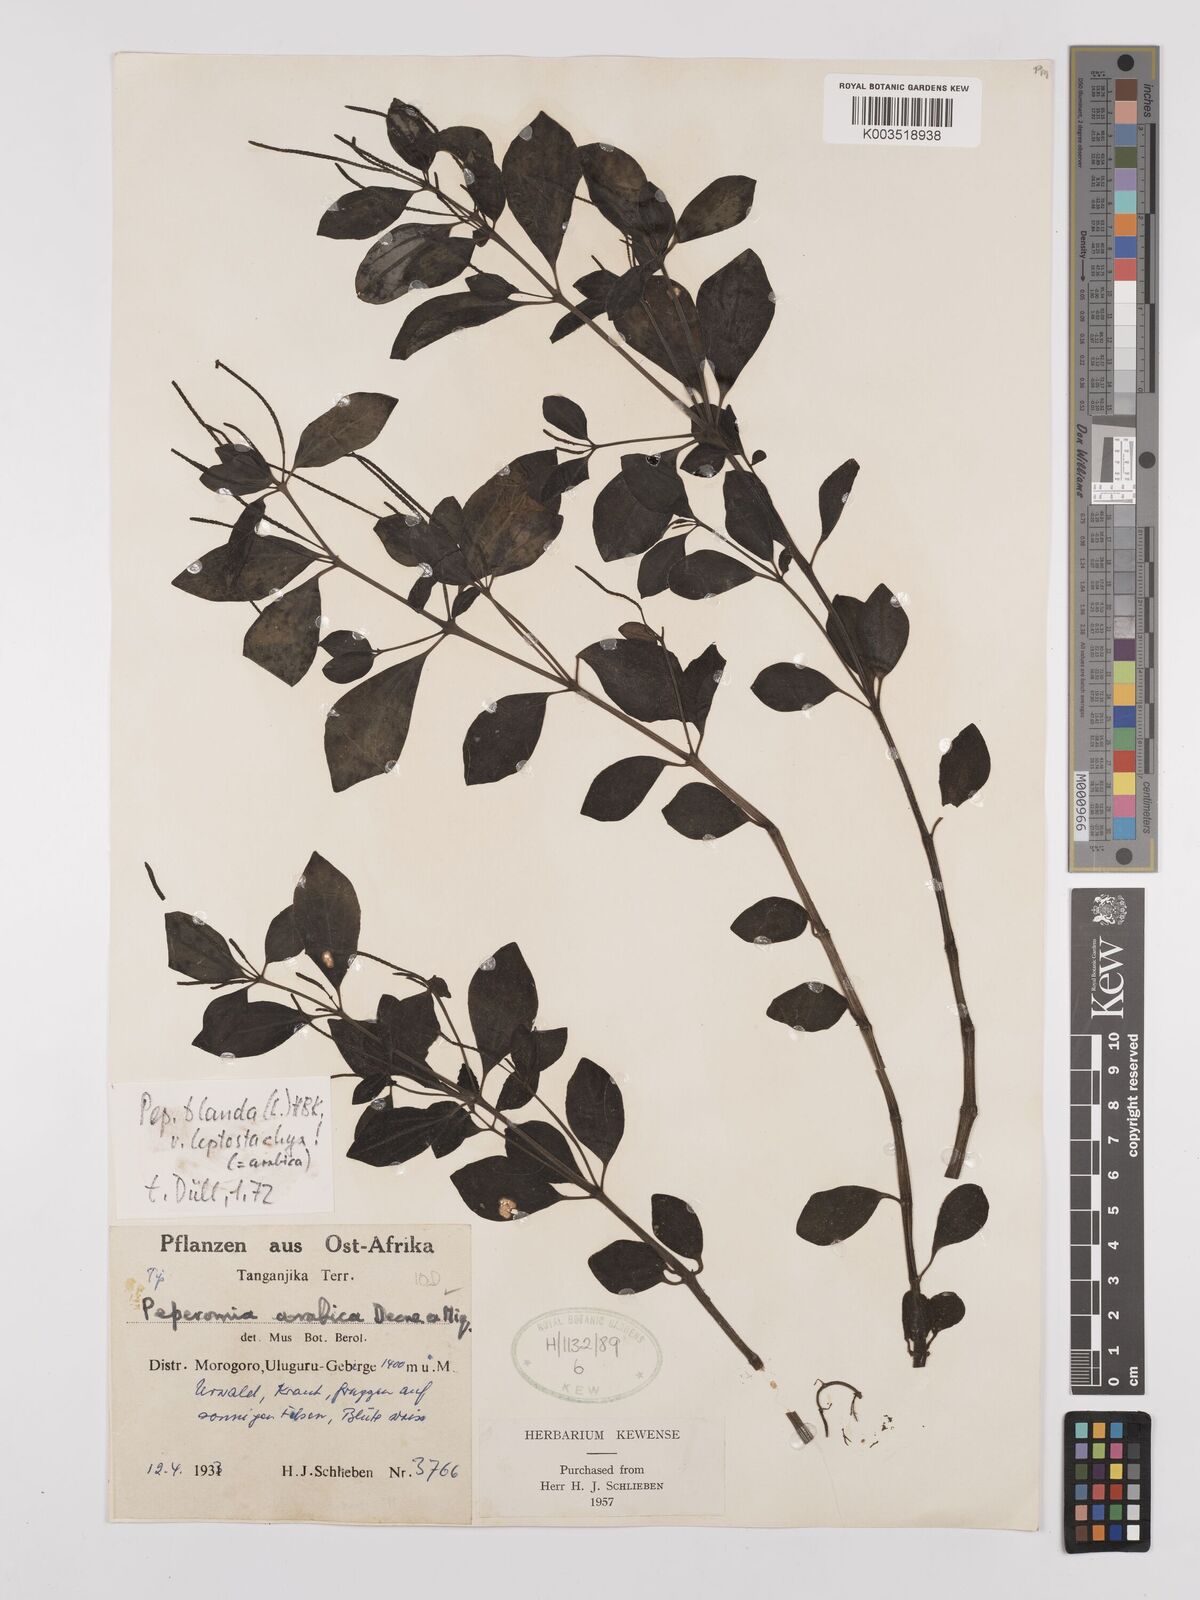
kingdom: Plantae
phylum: Tracheophyta
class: Magnoliopsida
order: Piperales
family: Piperaceae
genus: Peperomia
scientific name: Peperomia blanda
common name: Arid-land peperomia
